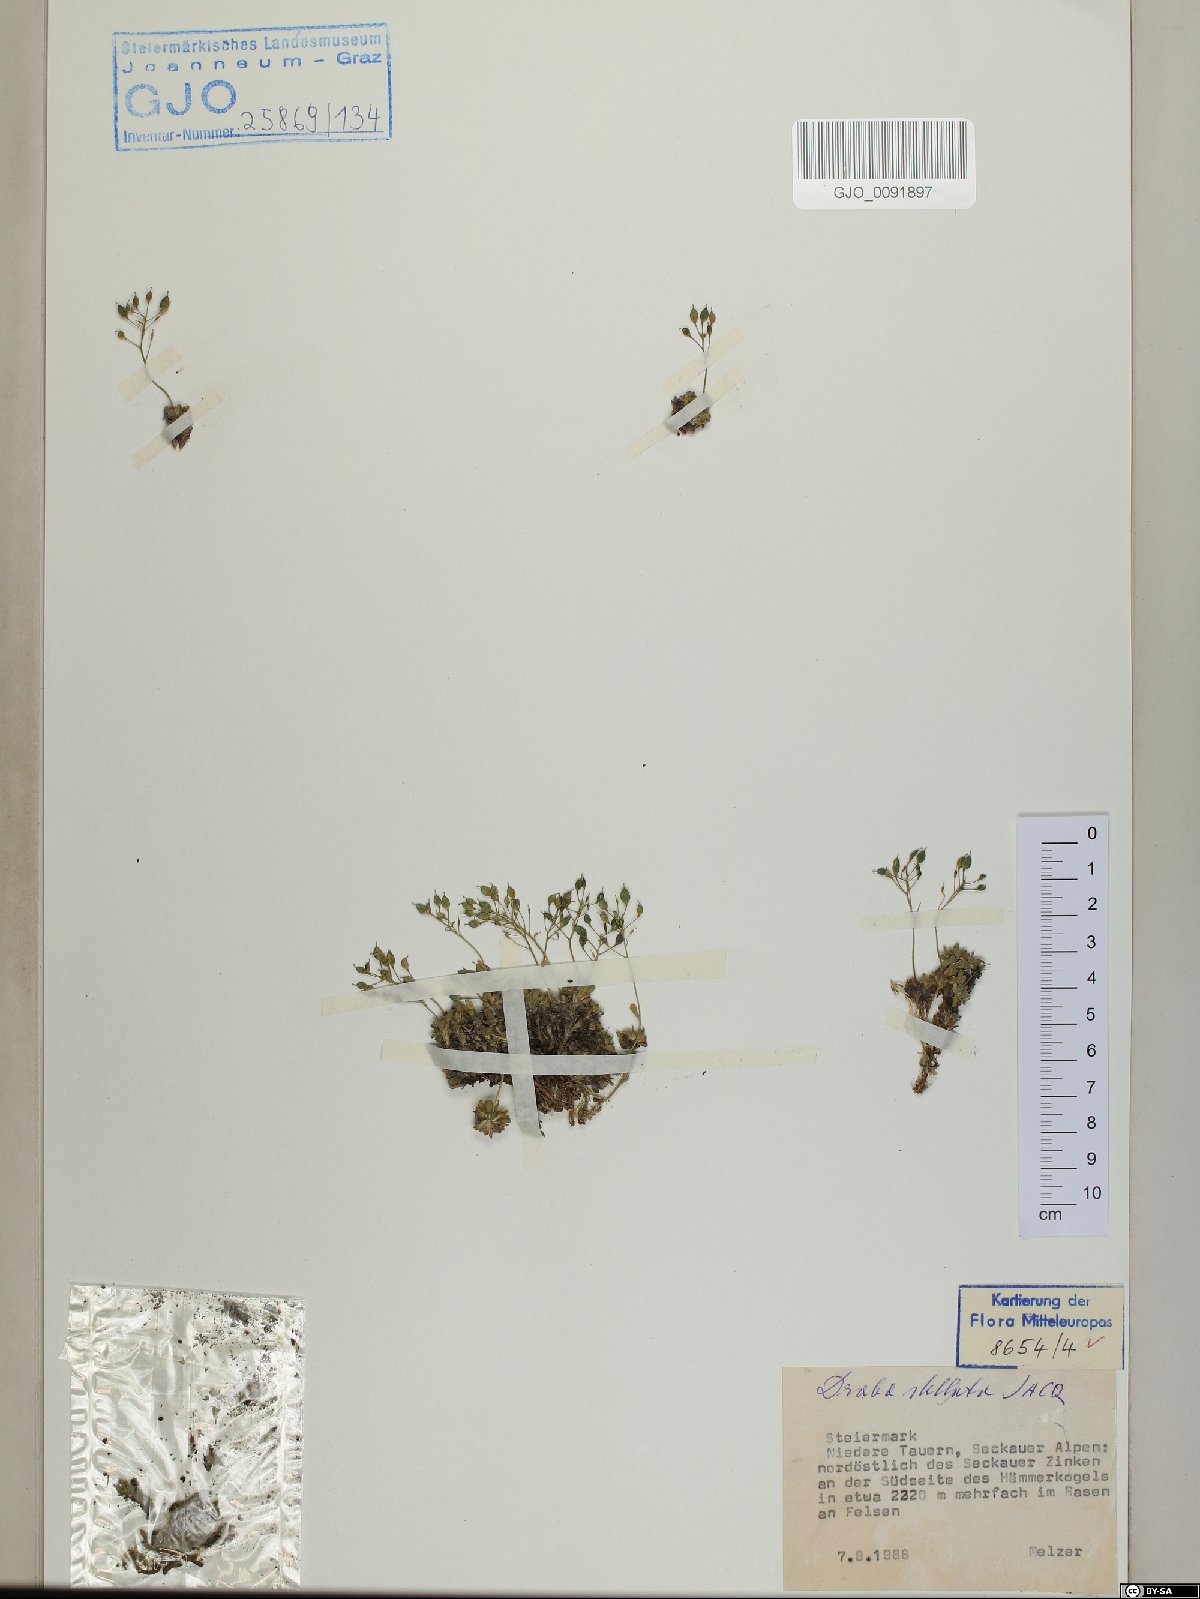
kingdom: Plantae
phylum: Tracheophyta
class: Magnoliopsida
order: Brassicales
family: Brassicaceae
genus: Draba
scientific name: Draba stellata
